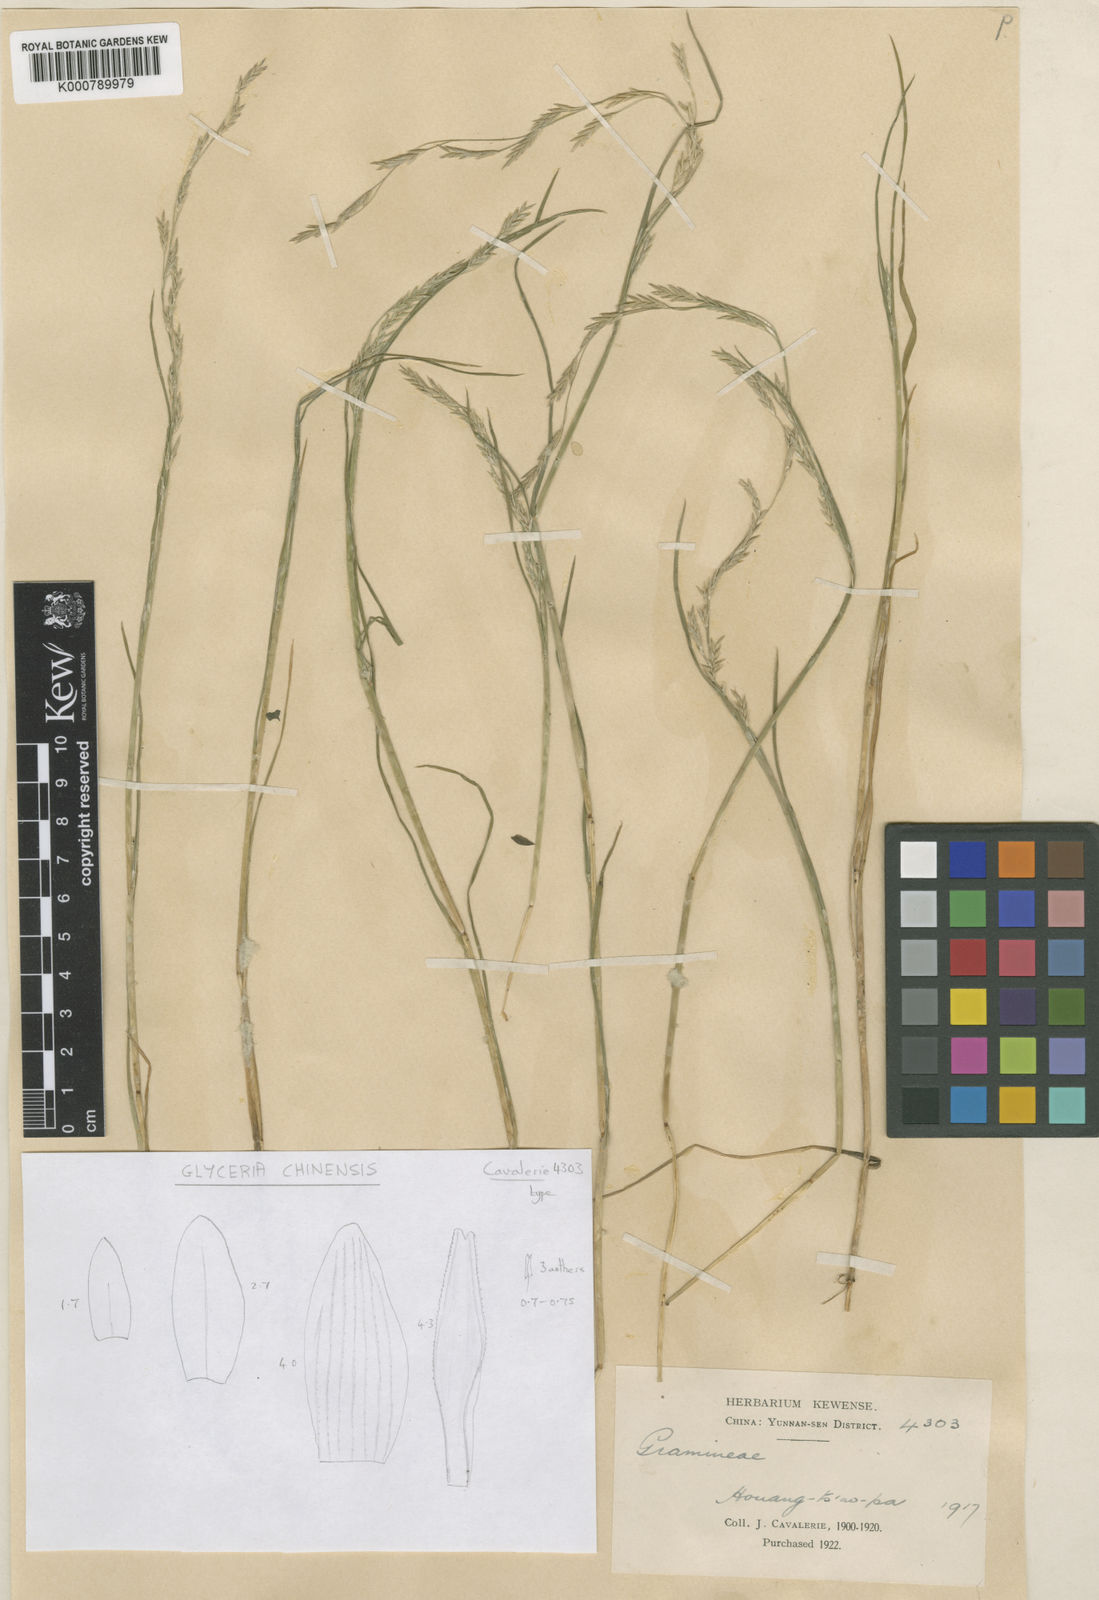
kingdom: Plantae
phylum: Tracheophyta
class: Liliopsida
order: Poales
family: Poaceae
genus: Glyceria
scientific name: Glyceria chinensis
